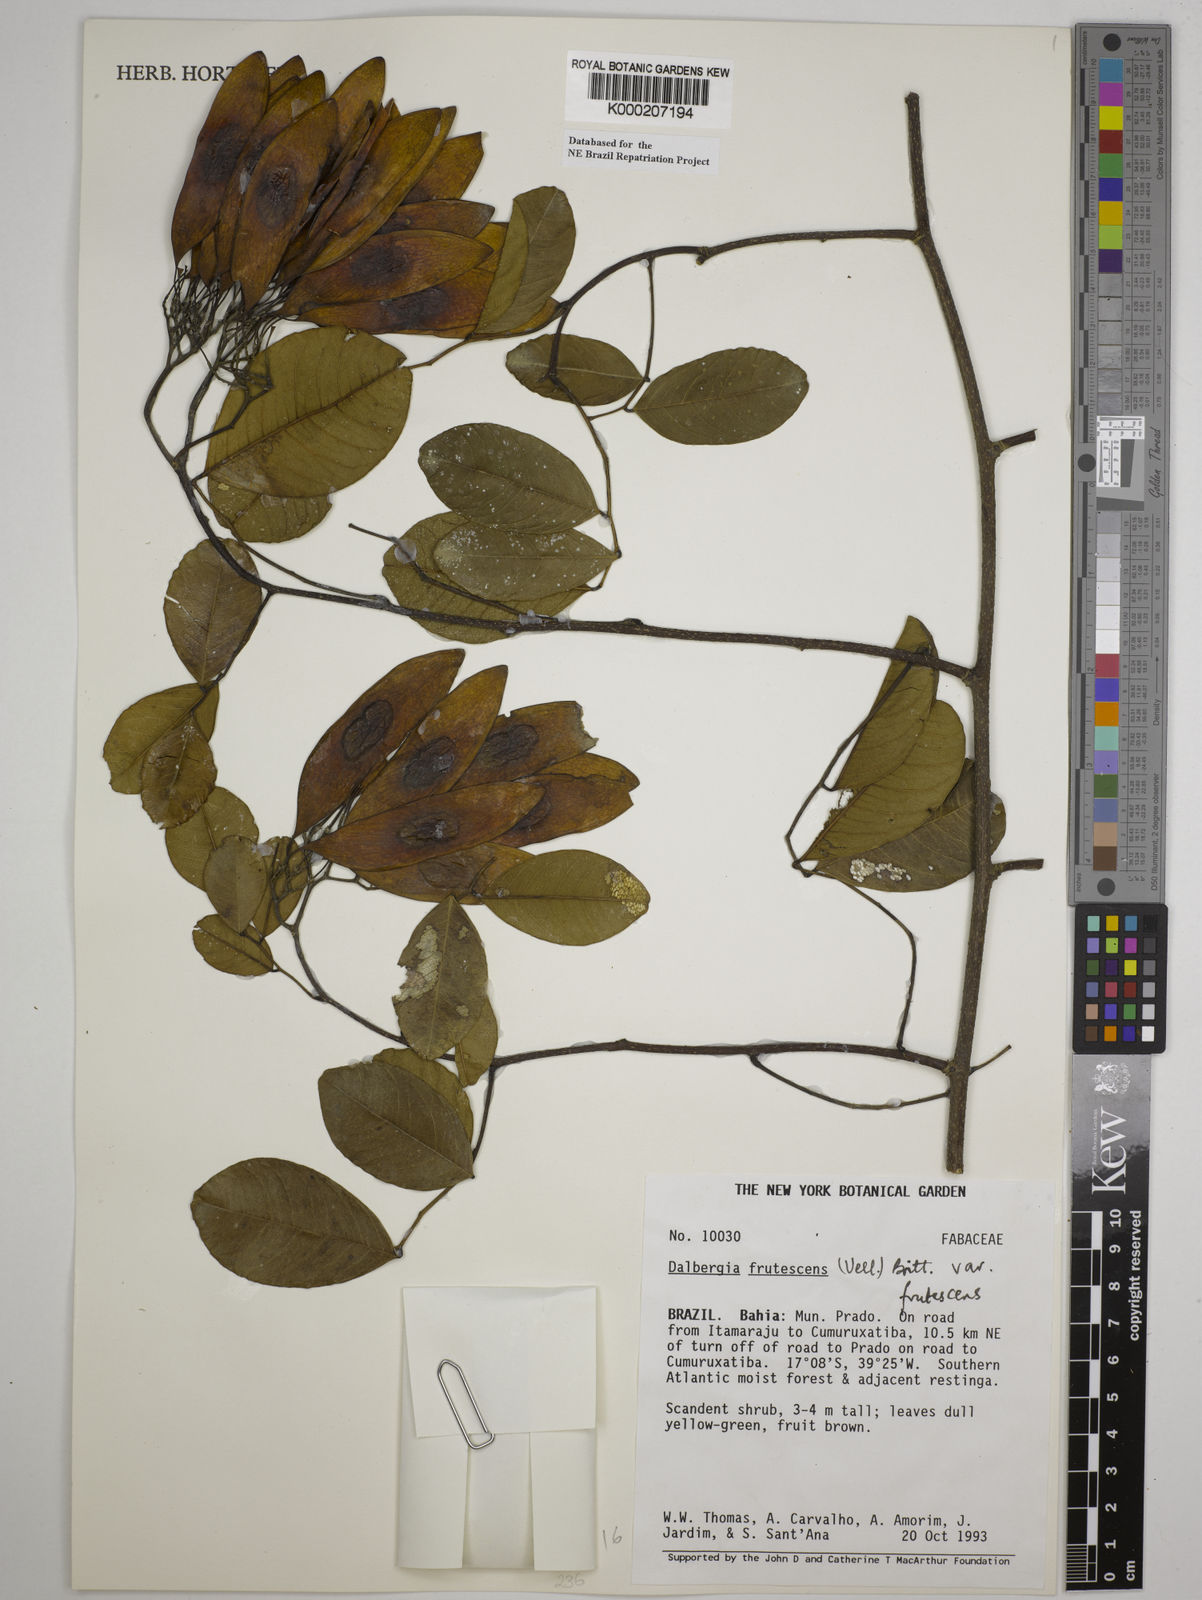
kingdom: Plantae
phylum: Tracheophyta
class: Magnoliopsida
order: Fabales
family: Fabaceae
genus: Dalbergia
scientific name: Dalbergia frutescens
